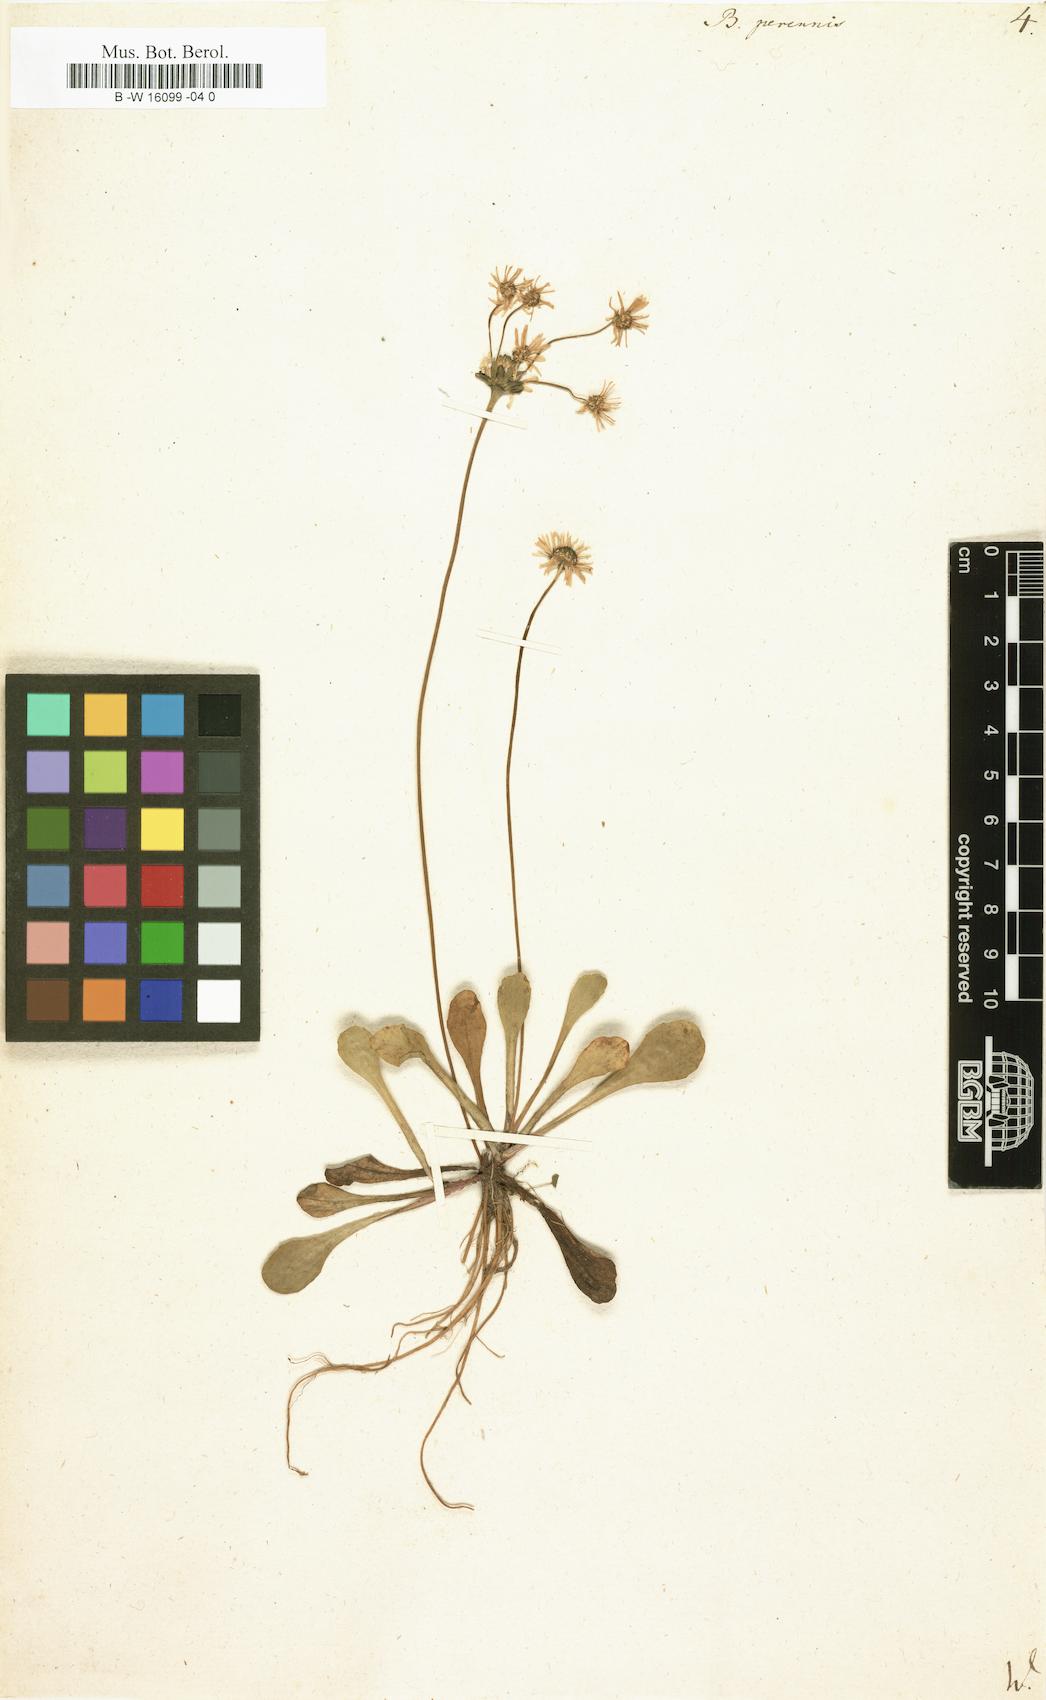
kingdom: Plantae
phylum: Tracheophyta
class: Magnoliopsida
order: Asterales
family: Asteraceae
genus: Bellis
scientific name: Bellis perennis
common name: Lawndaisy
